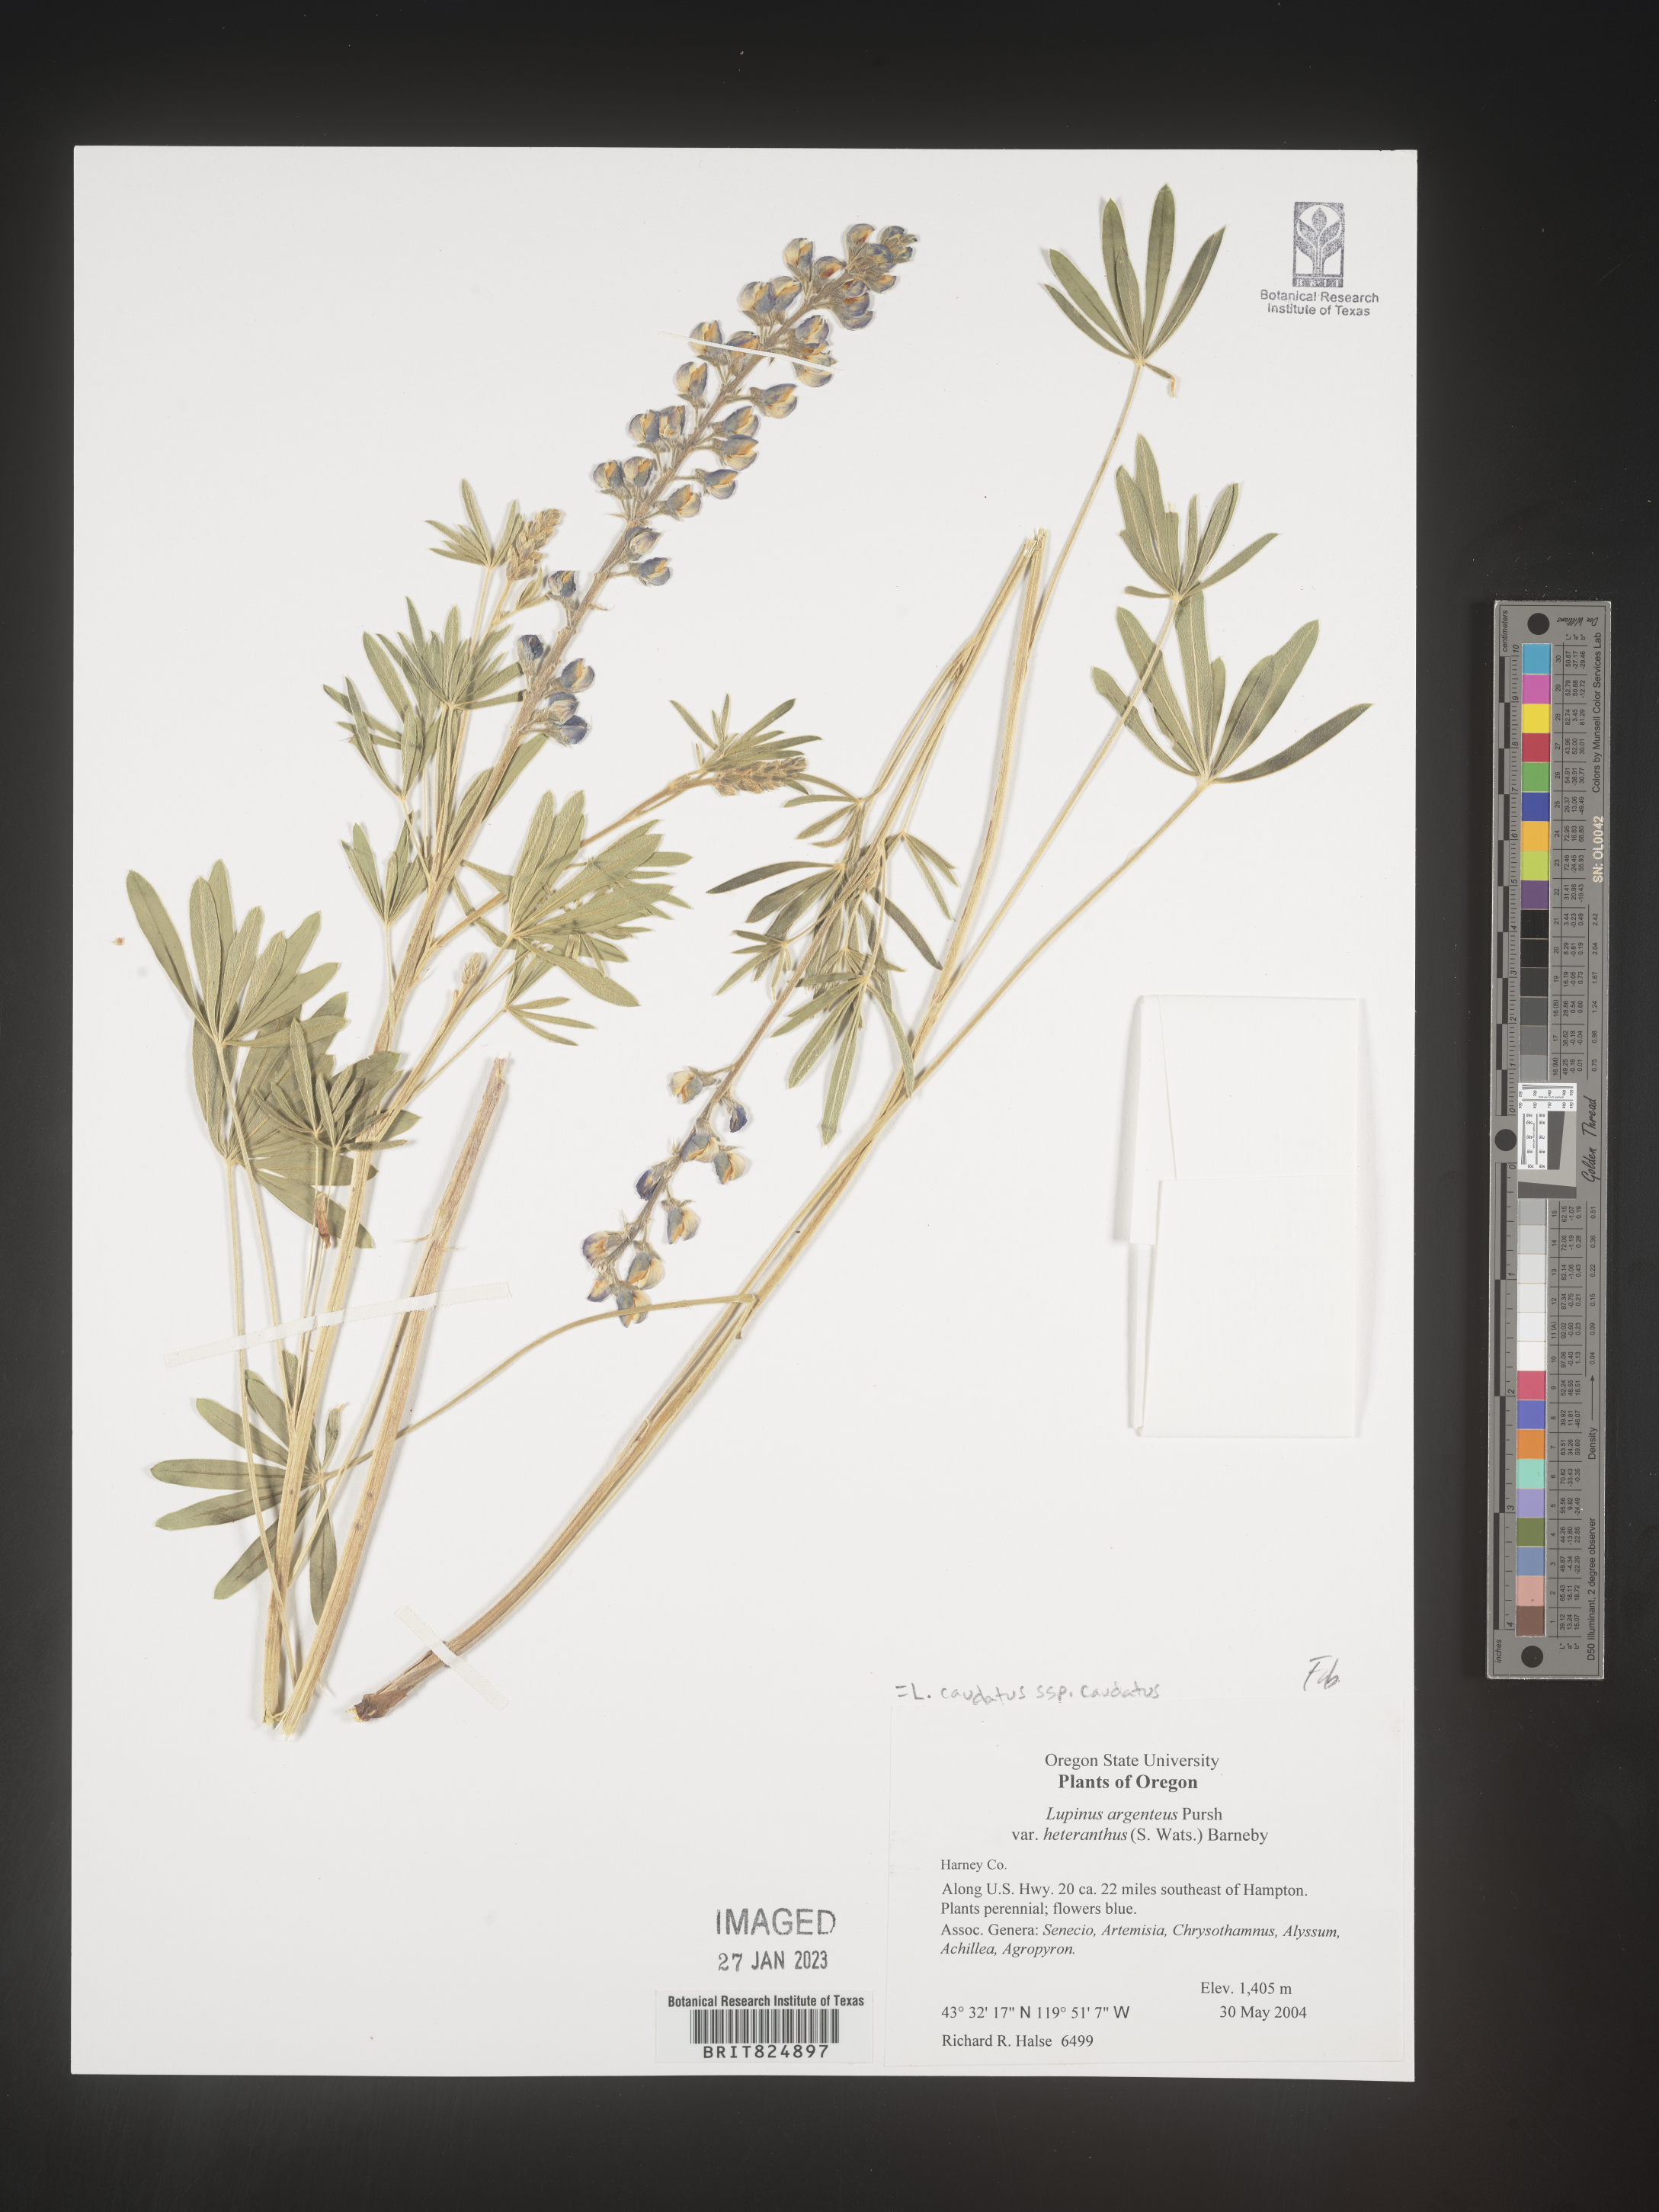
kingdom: Plantae
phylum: Tracheophyta
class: Magnoliopsida
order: Fabales
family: Fabaceae
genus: Lupinus
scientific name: Lupinus caudatus
